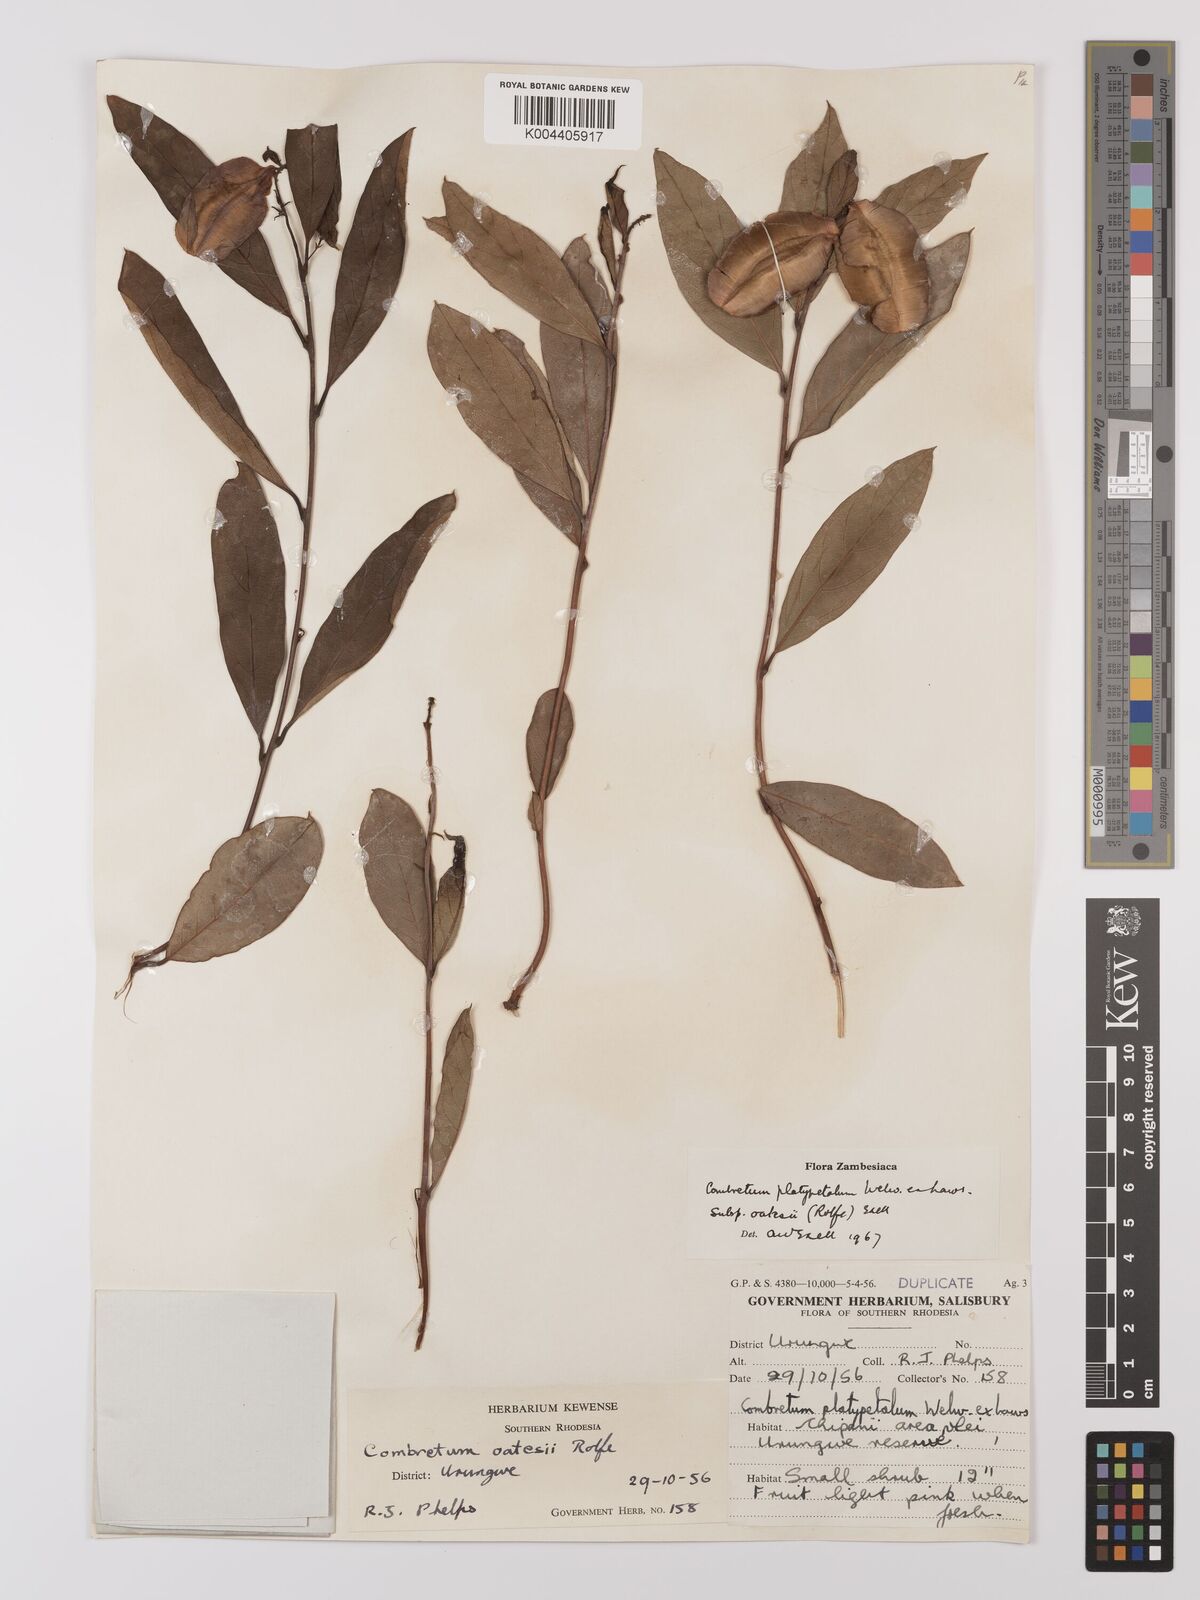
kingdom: Plantae
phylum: Tracheophyta
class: Magnoliopsida
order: Myrtales
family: Combretaceae
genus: Combretum
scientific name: Combretum platypetalum
